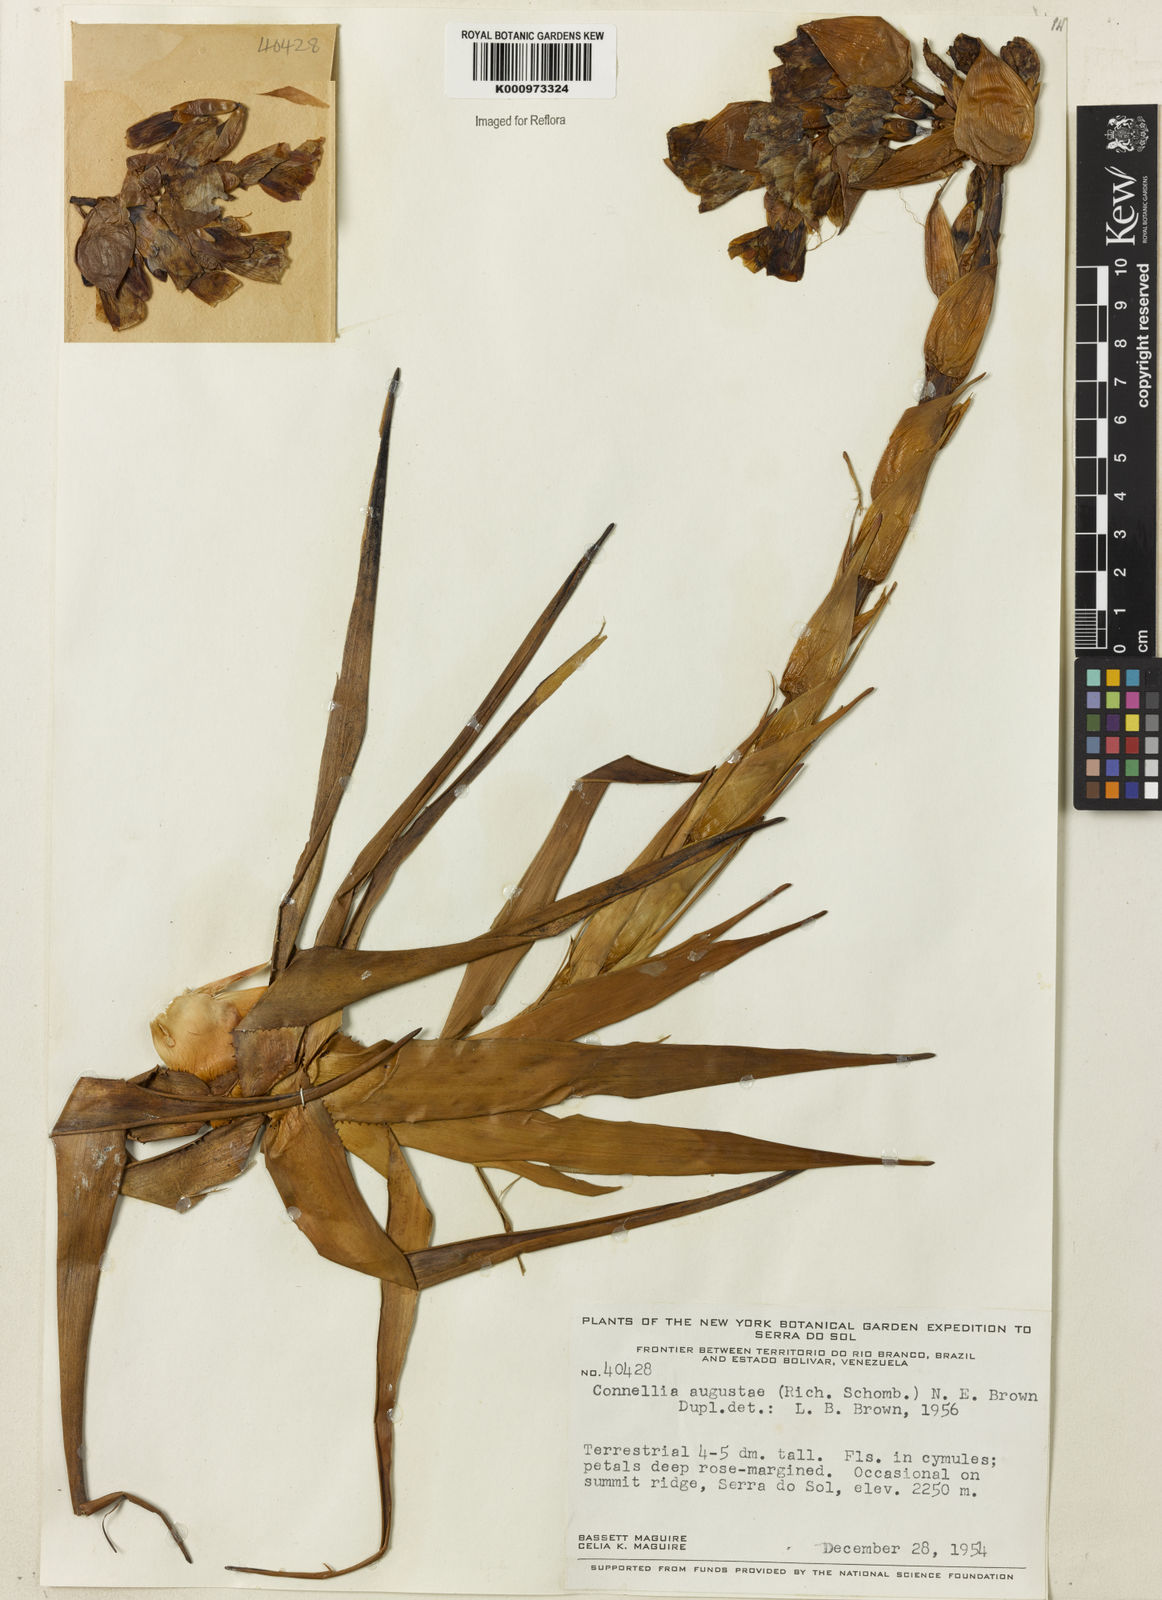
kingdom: Plantae
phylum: Tracheophyta
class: Liliopsida
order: Poales
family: Bromeliaceae
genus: Connellia
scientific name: Connellia augustae
